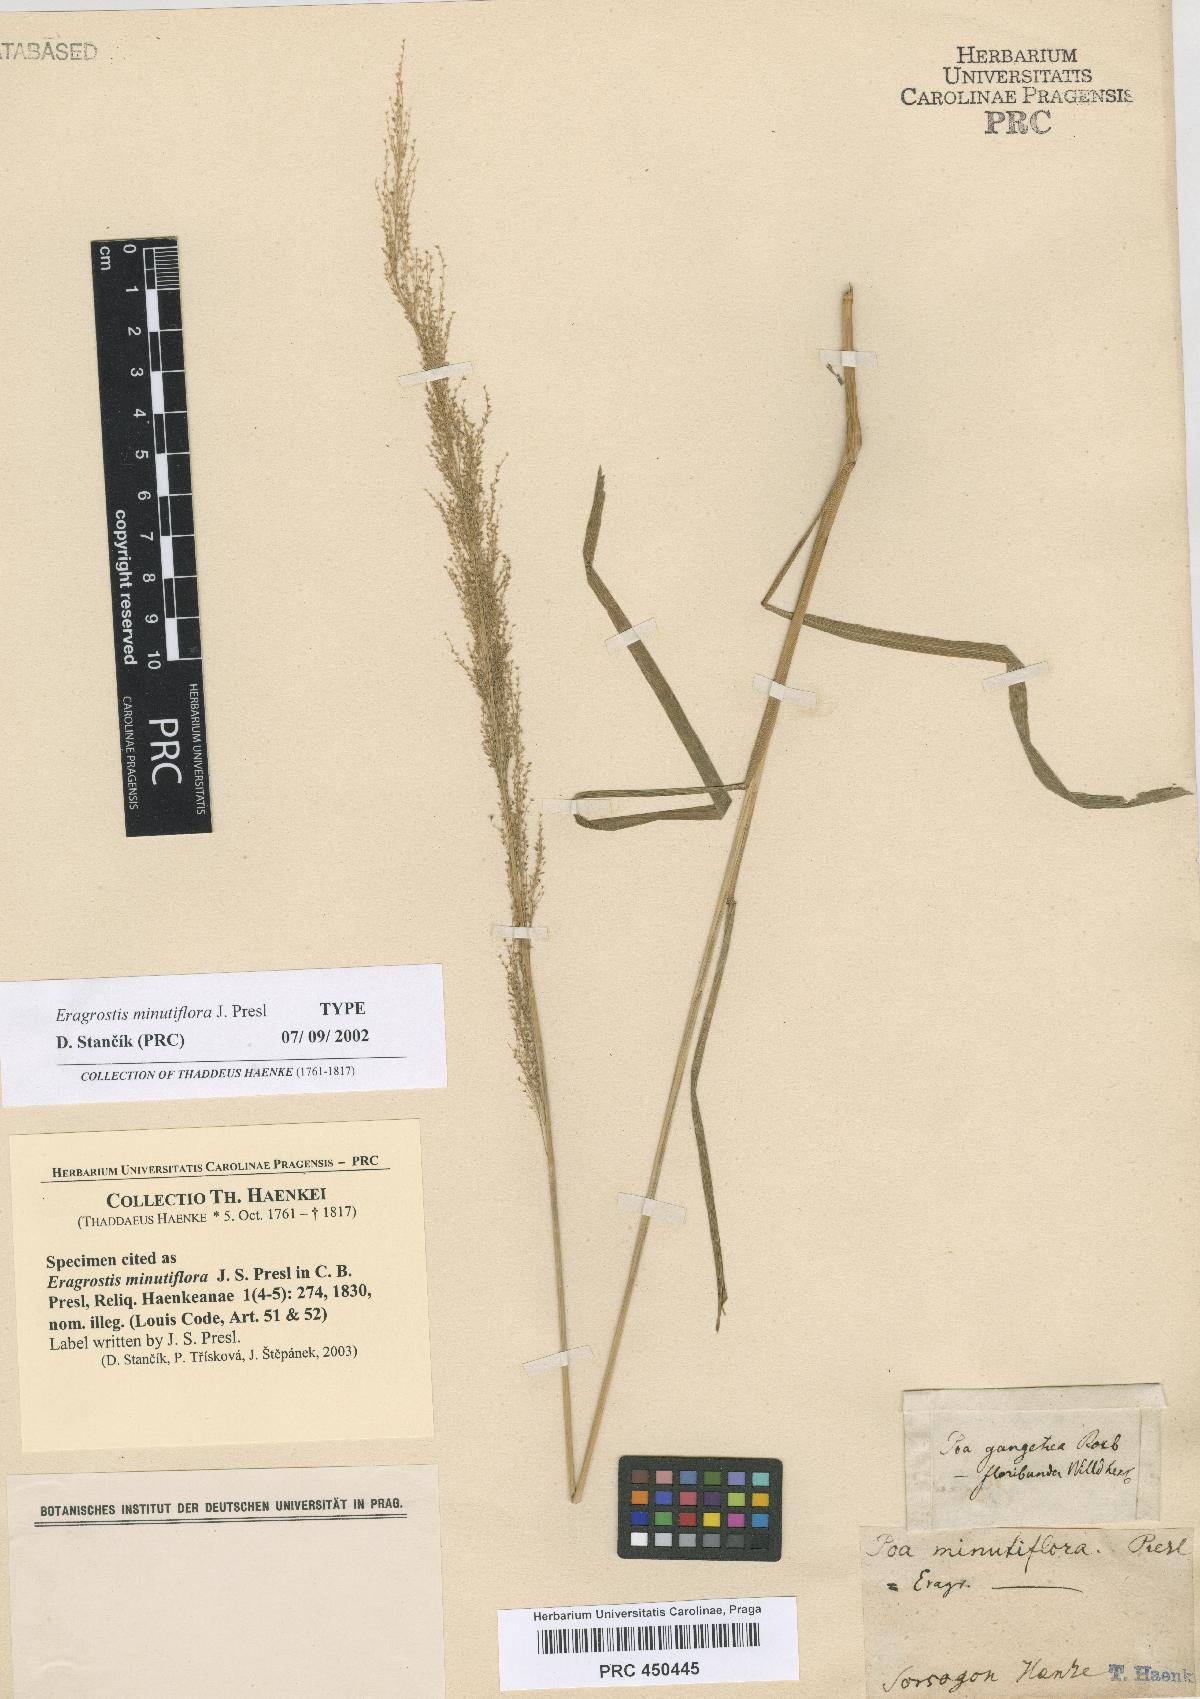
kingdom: Plantae
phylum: Tracheophyta
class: Liliopsida
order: Poales
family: Poaceae
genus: Eragrostis
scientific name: Eragrostis japonica
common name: Pond lovegrass
